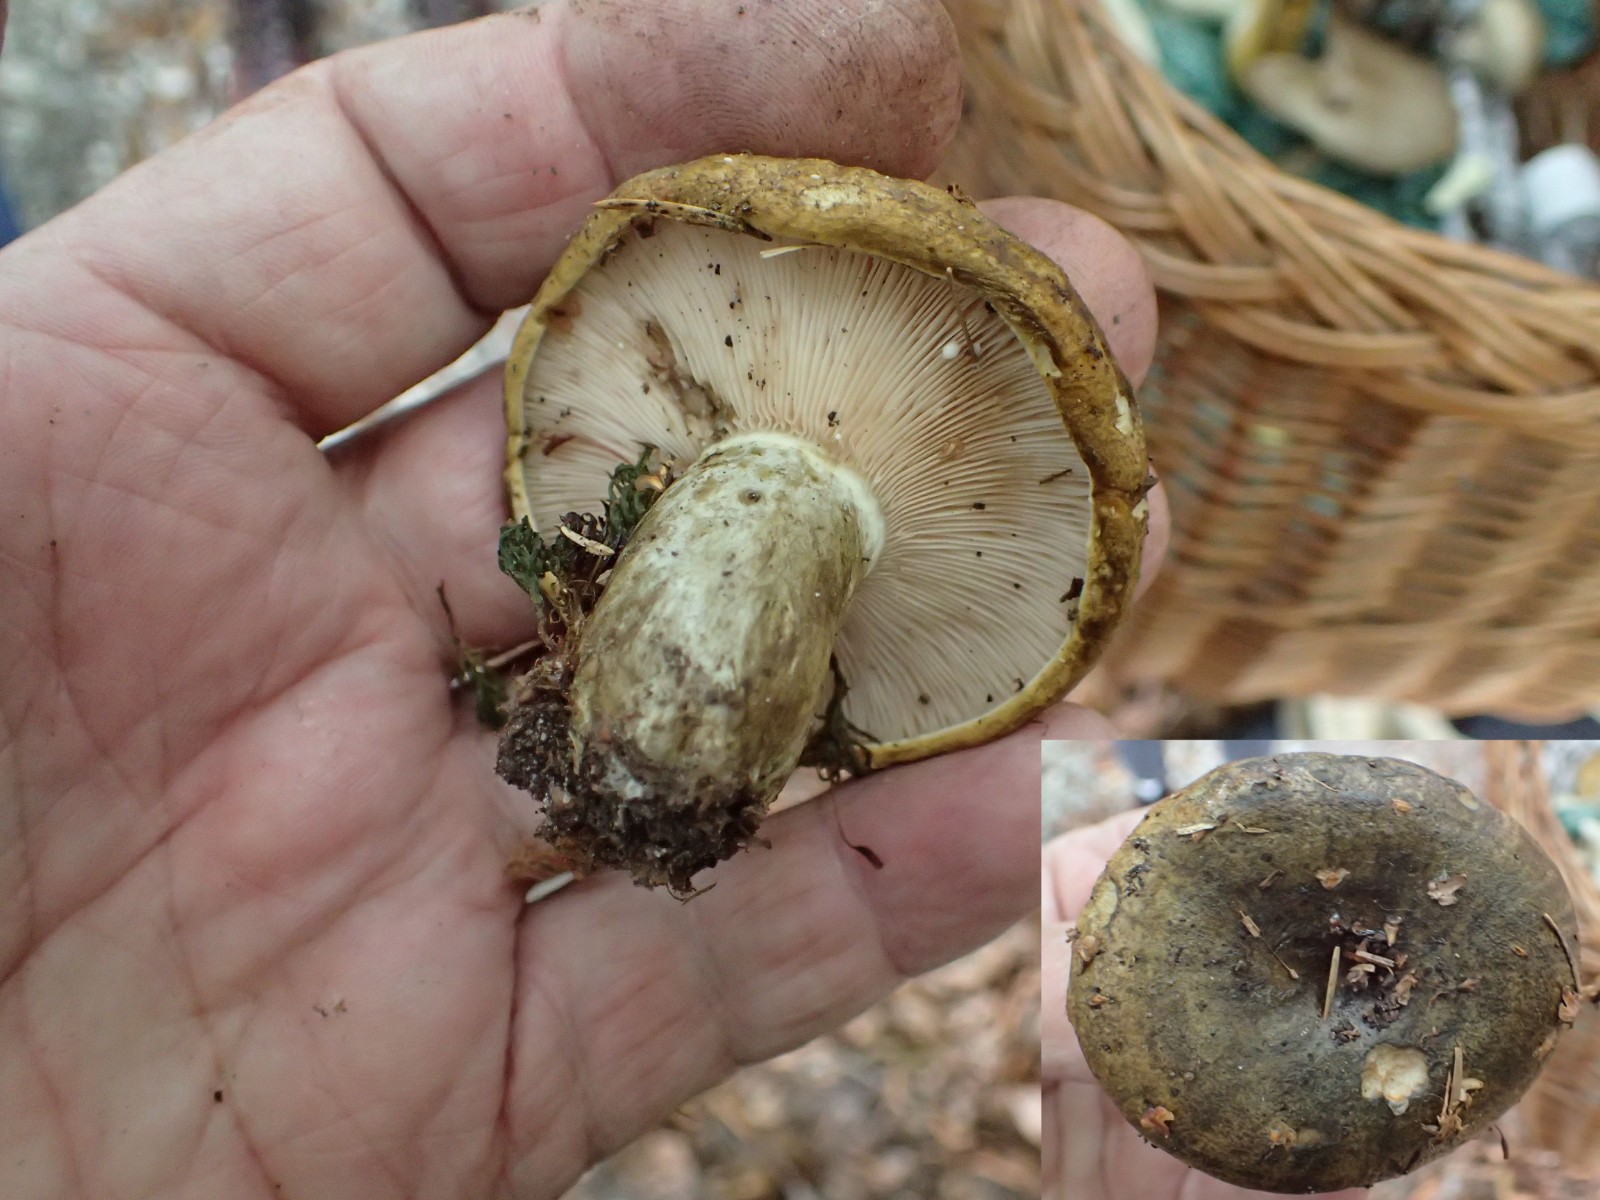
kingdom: Fungi
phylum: Basidiomycota
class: Agaricomycetes
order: Russulales
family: Russulaceae
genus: Lactarius
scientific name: Lactarius necator
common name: manddraber-mælkehat
